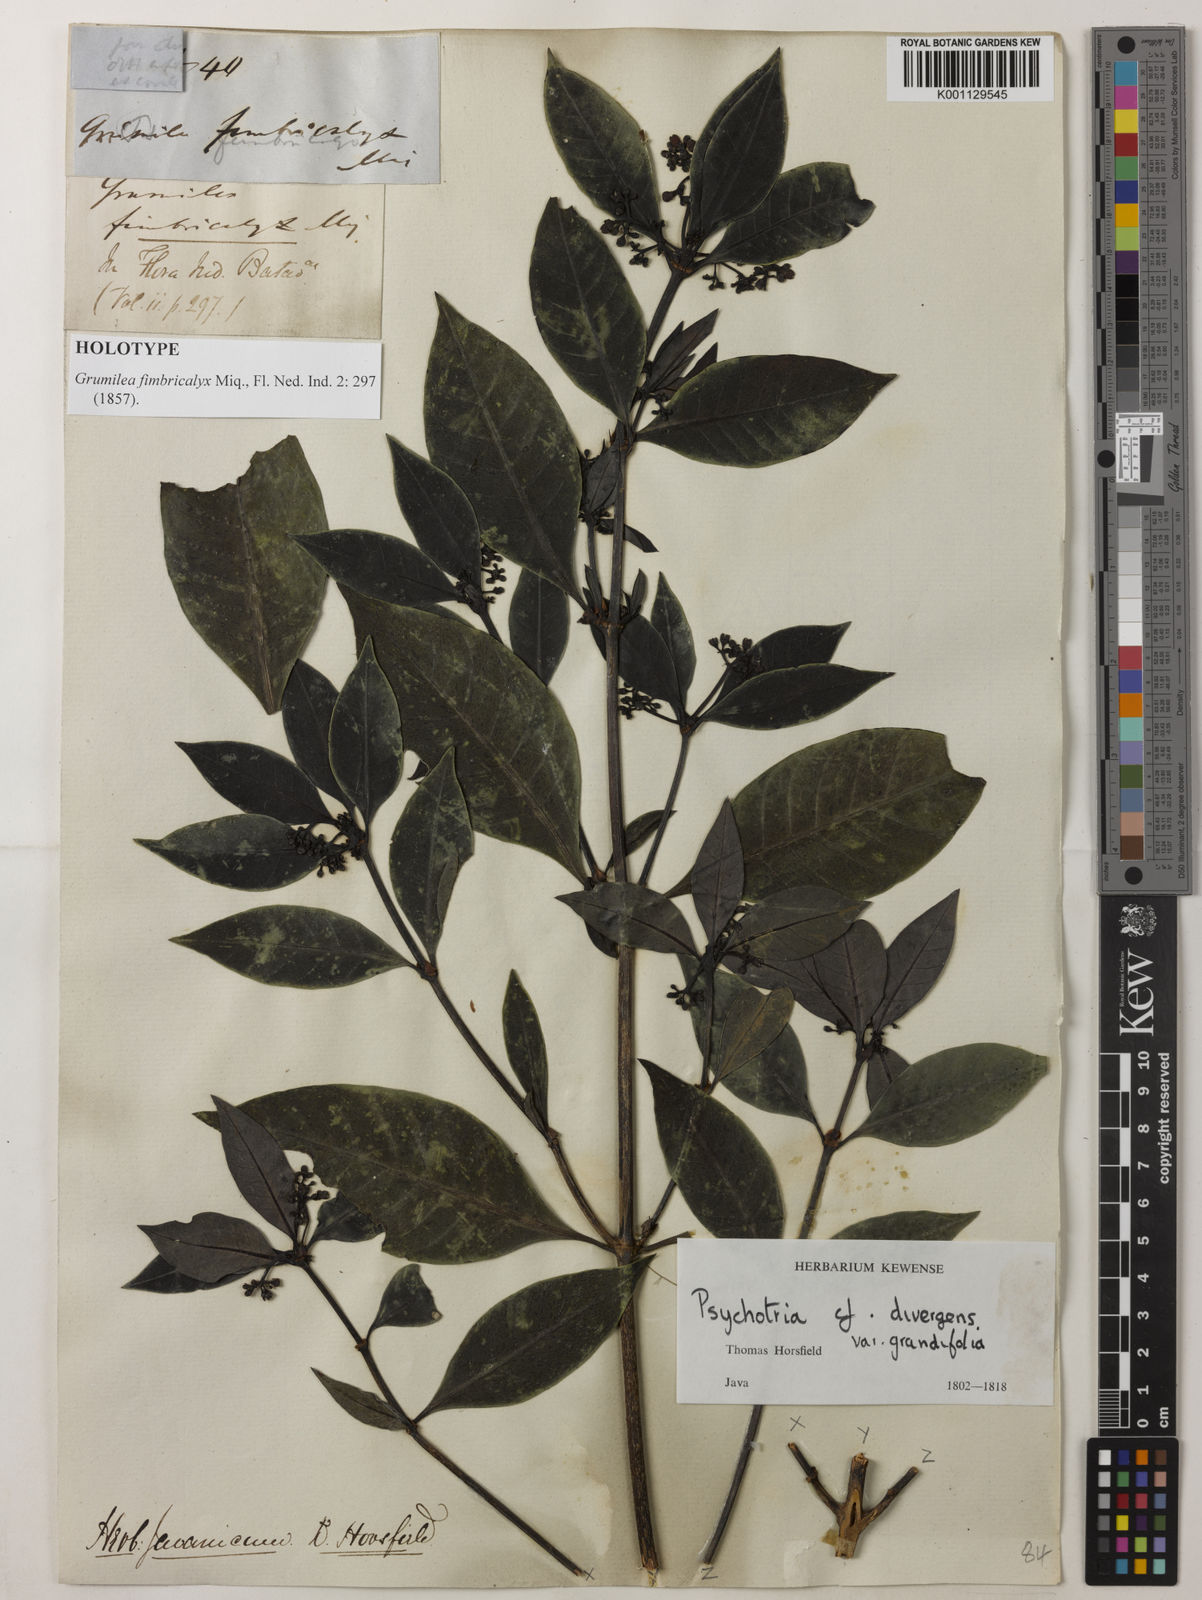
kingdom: Plantae
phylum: Tracheophyta
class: Magnoliopsida
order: Gentianales
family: Rubiaceae
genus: Psychotria
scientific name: Psychotria fimbricalyx
